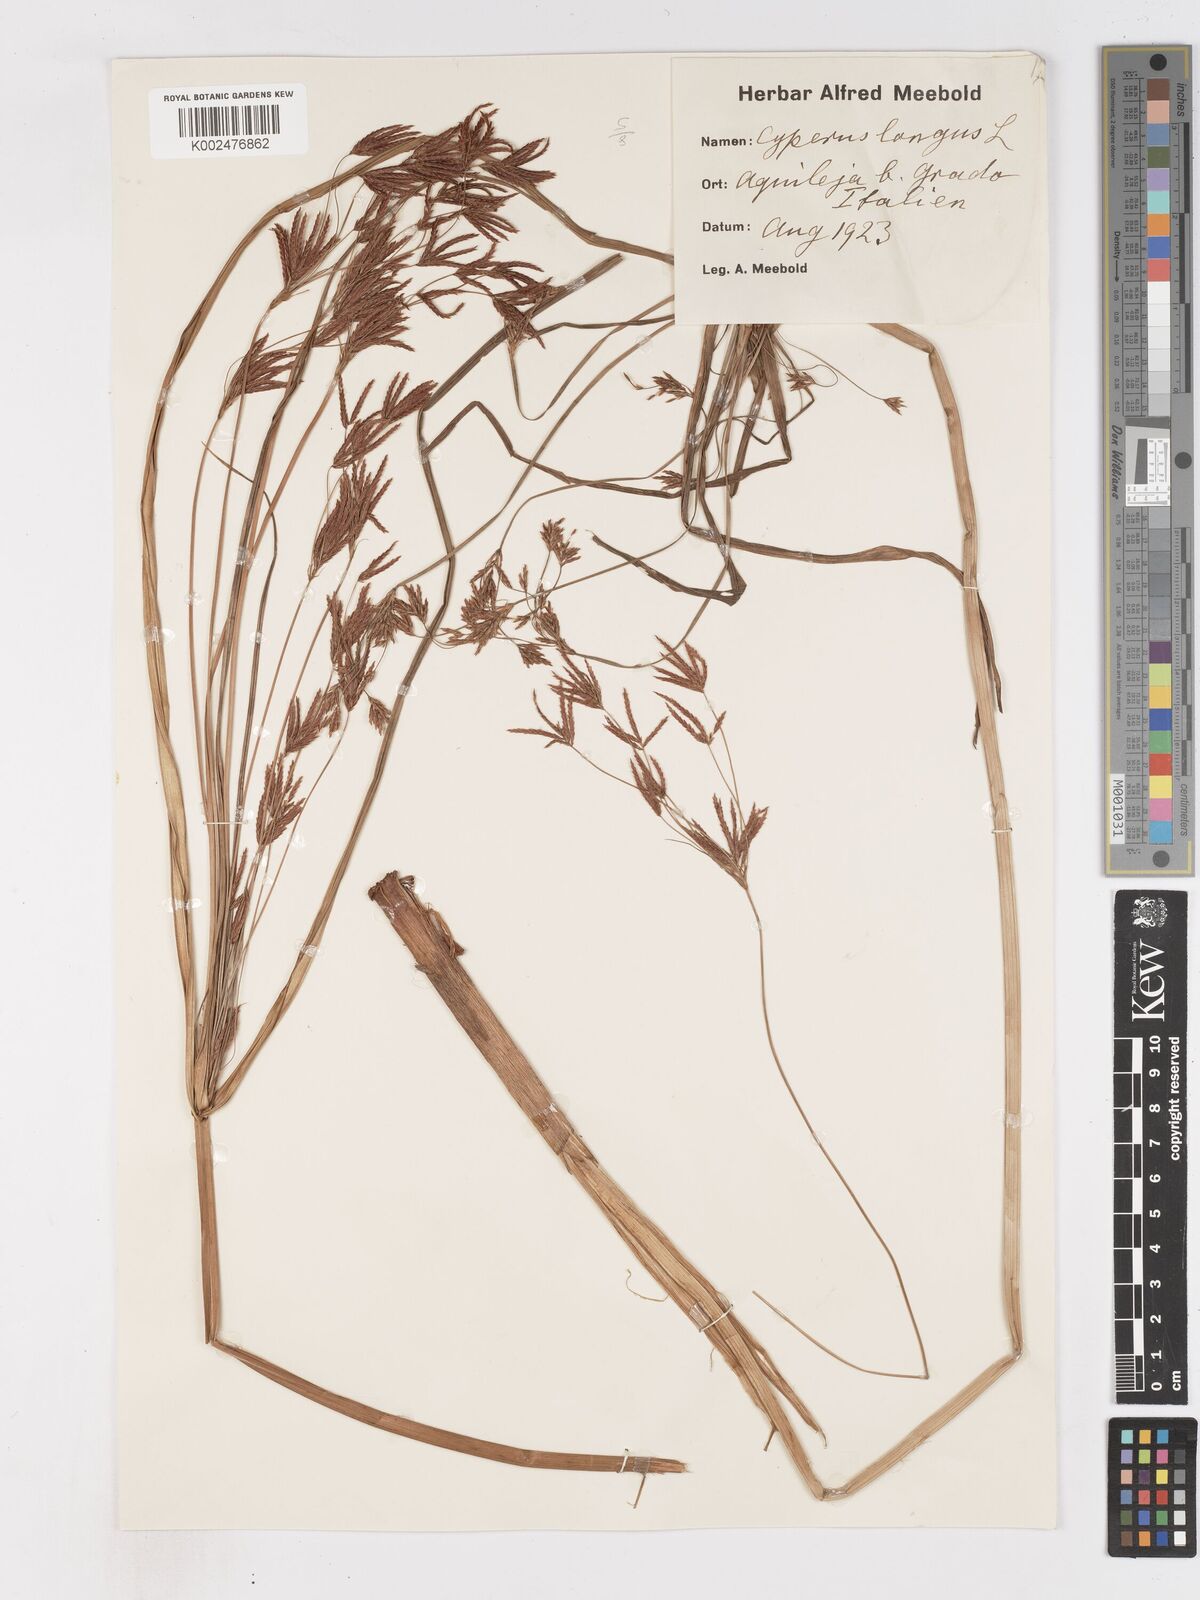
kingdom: Plantae
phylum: Tracheophyta
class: Liliopsida
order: Poales
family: Cyperaceae
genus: Cyperus
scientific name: Cyperus longus
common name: Galingale
